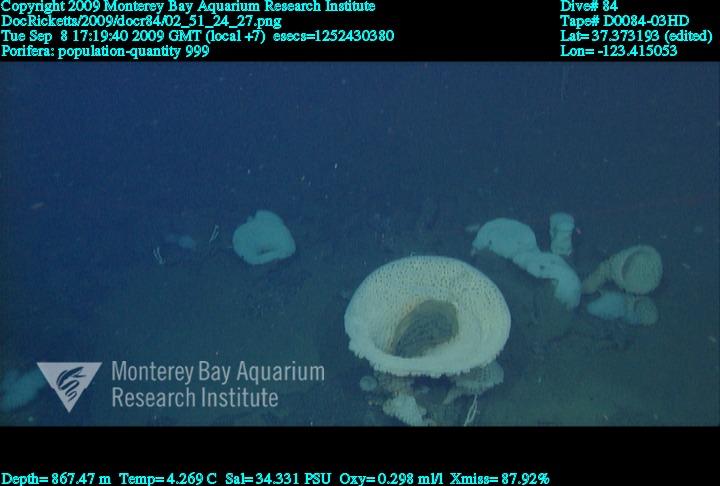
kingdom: Animalia
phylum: Porifera
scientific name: Porifera
